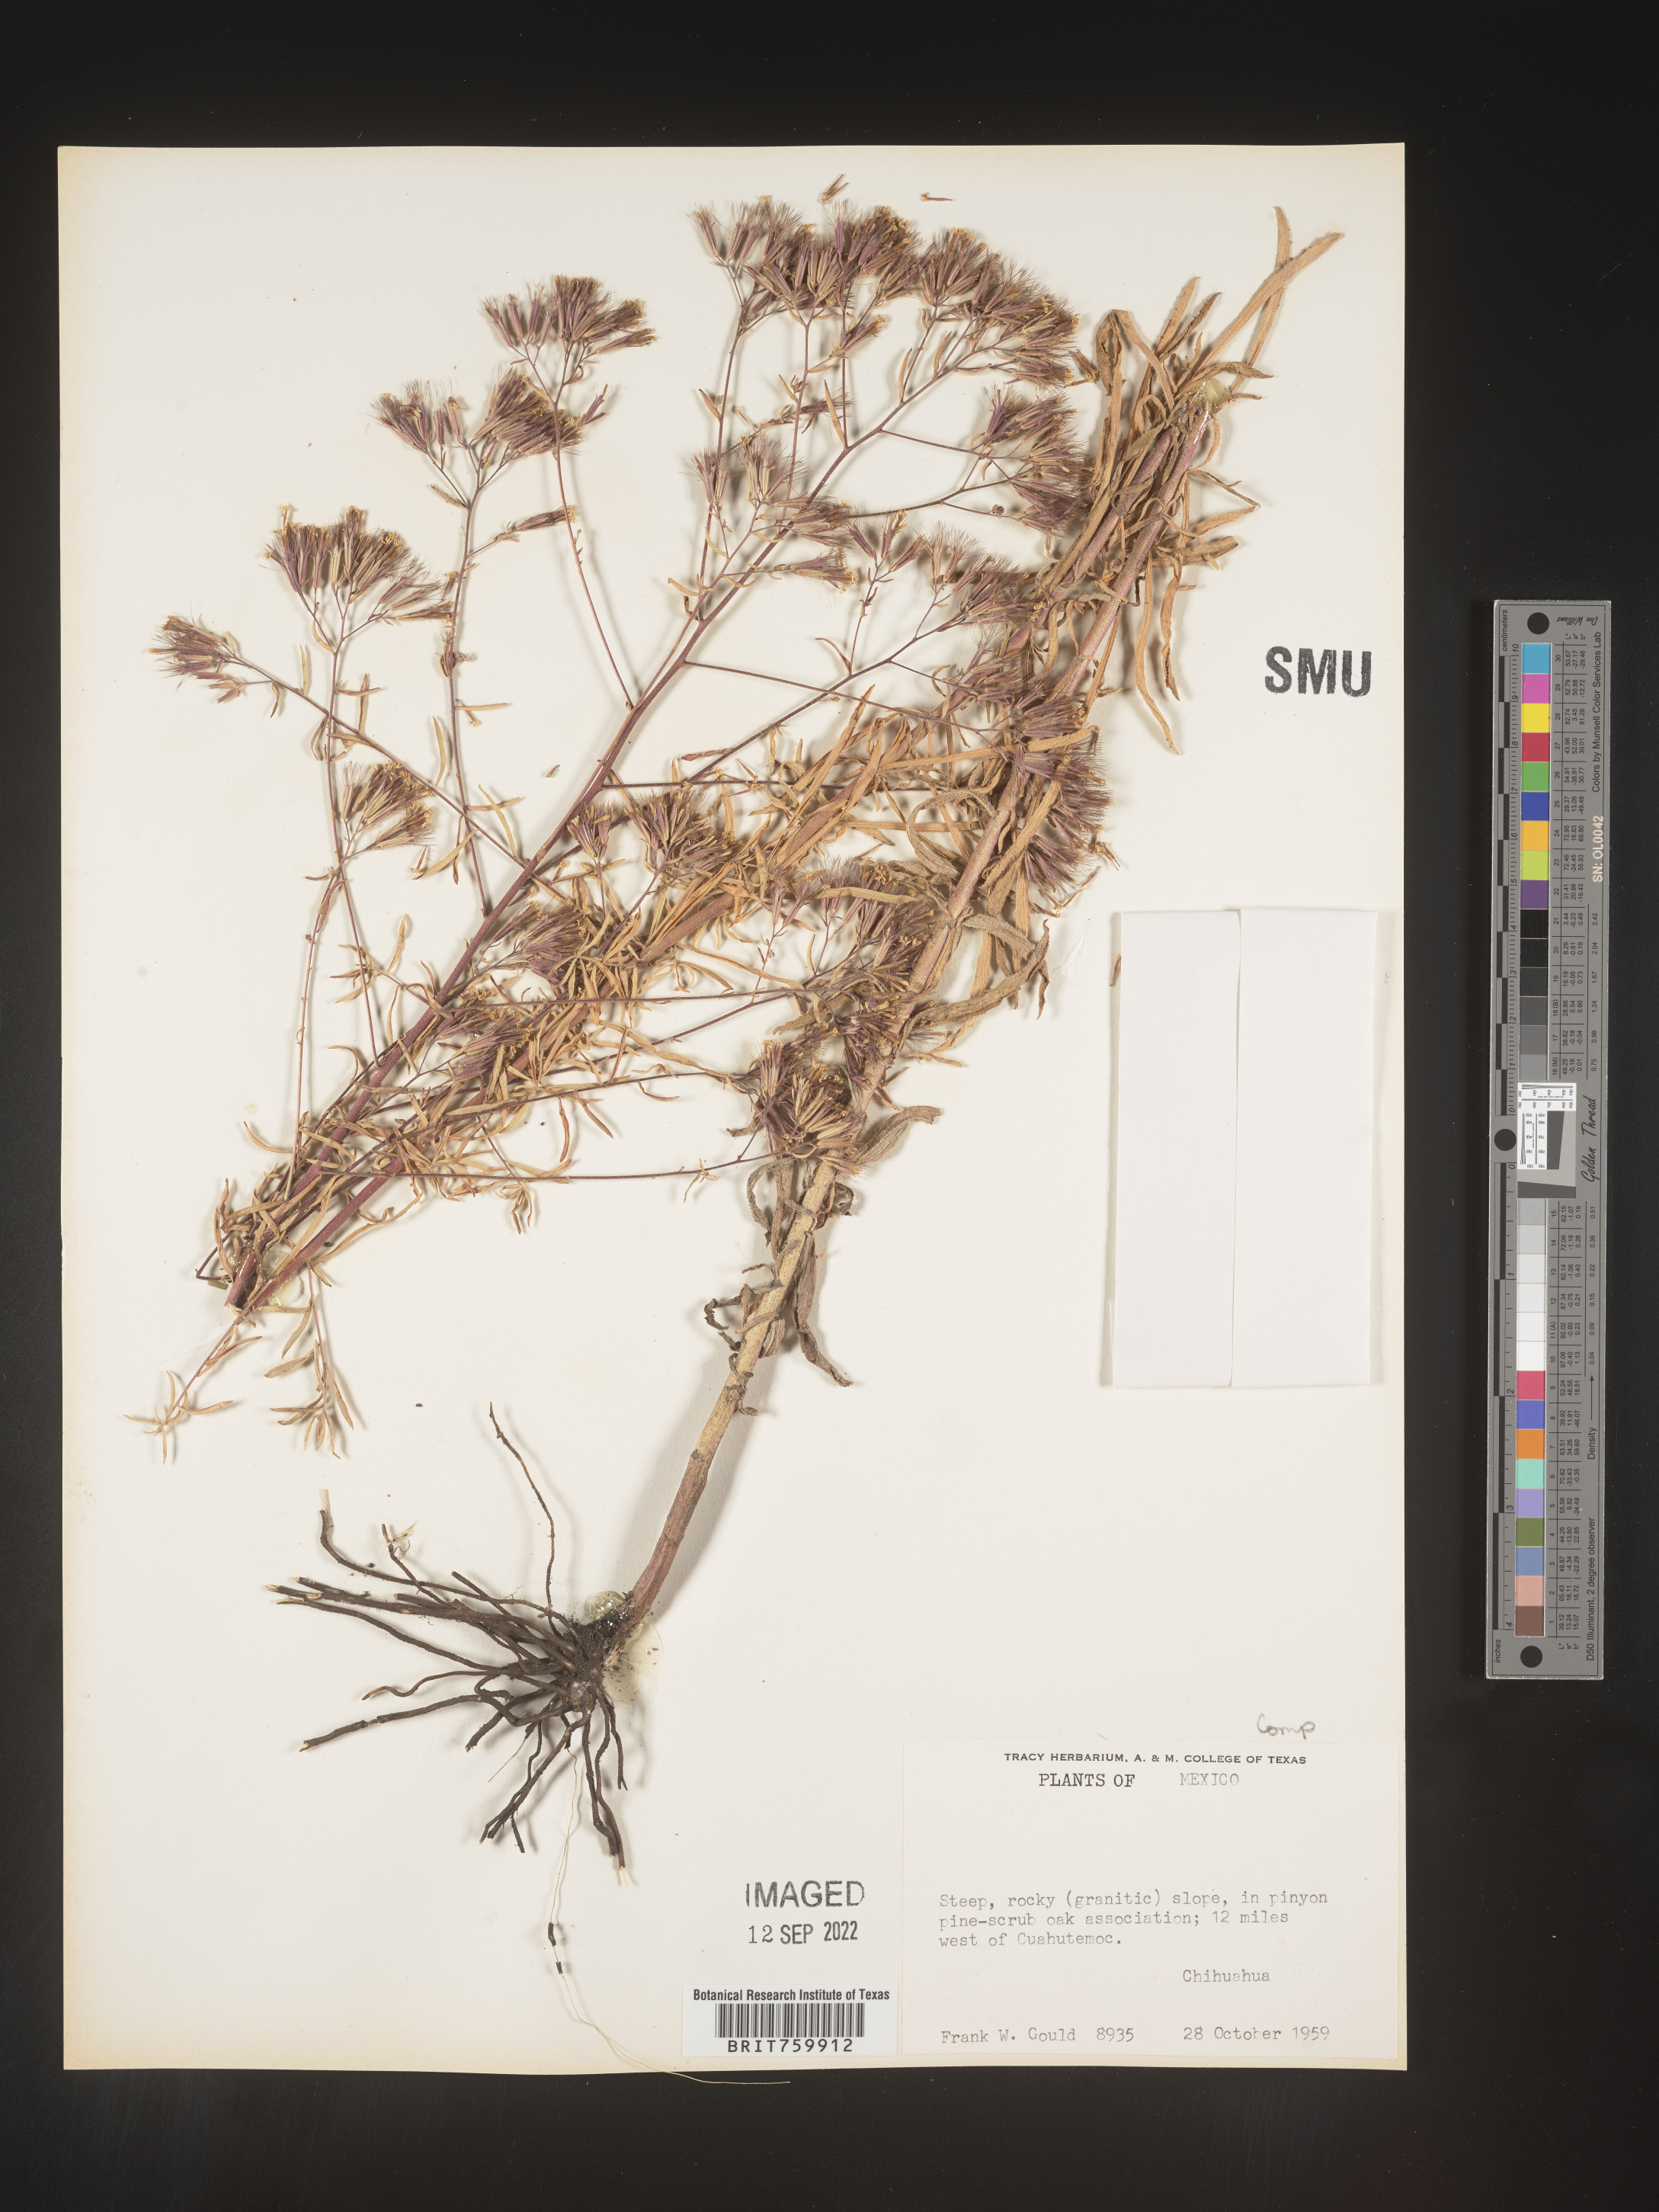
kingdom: Plantae
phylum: Tracheophyta
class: Magnoliopsida
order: Asterales
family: Asteraceae
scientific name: Asteraceae
